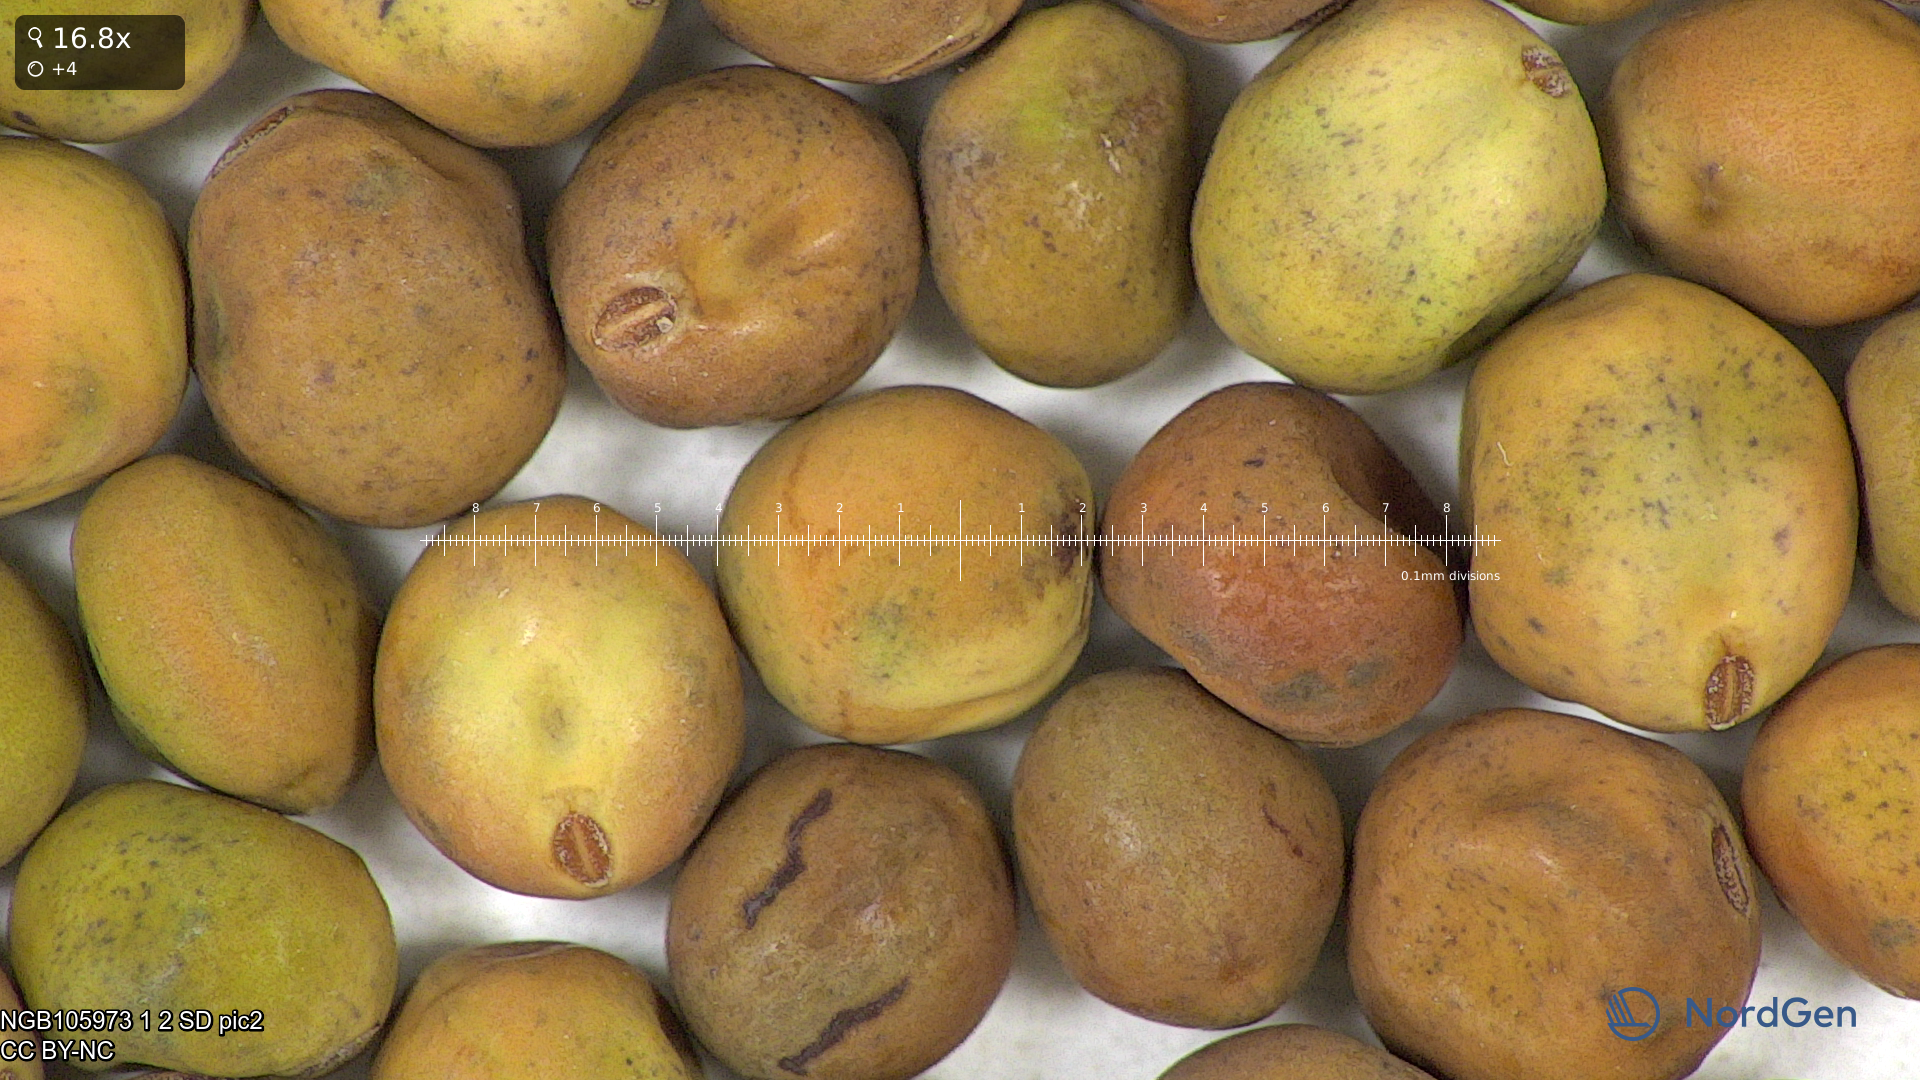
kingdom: Plantae
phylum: Tracheophyta
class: Magnoliopsida
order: Fabales
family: Fabaceae
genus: Lathyrus
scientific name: Lathyrus oleraceus
